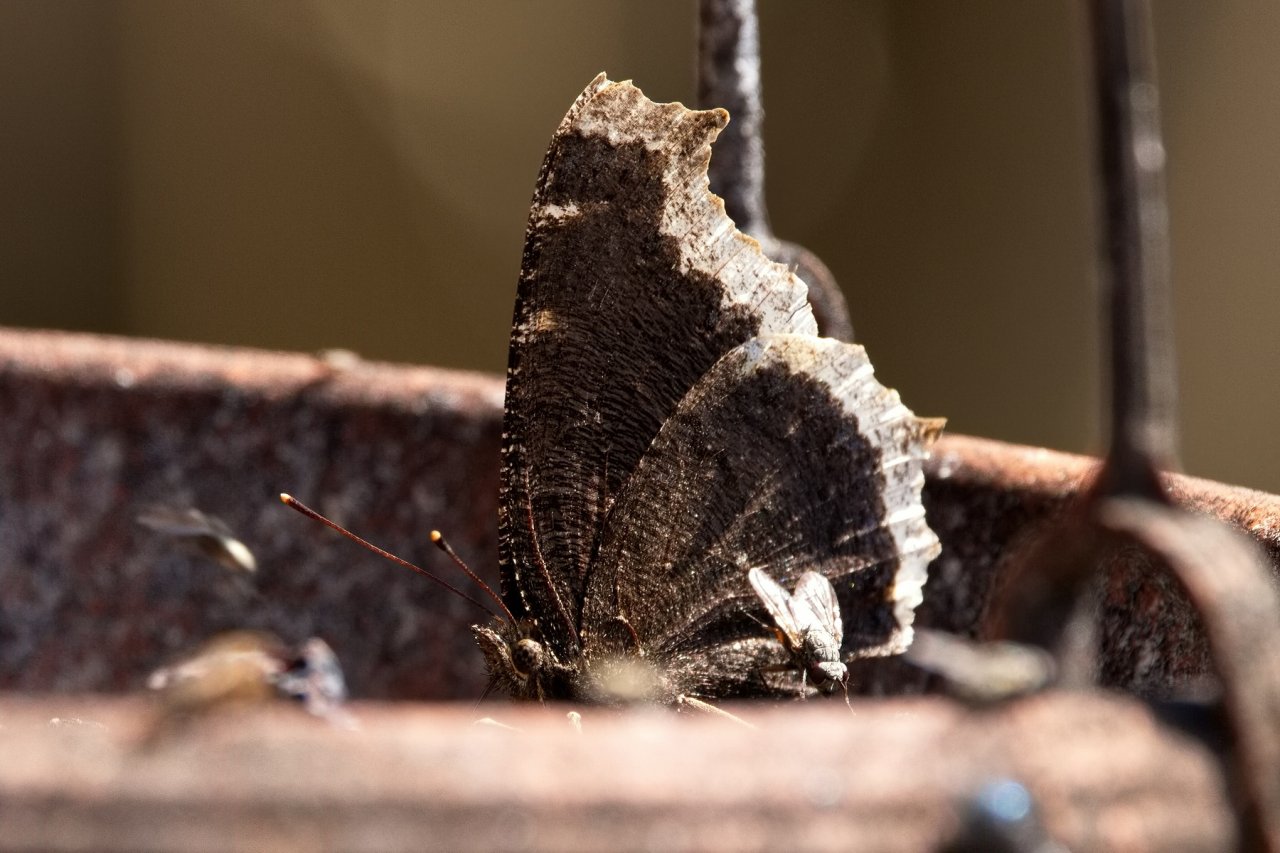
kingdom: Animalia
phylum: Arthropoda
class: Insecta
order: Lepidoptera
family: Nymphalidae
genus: Nymphalis
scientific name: Nymphalis antiopa
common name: Mourning Cloak
